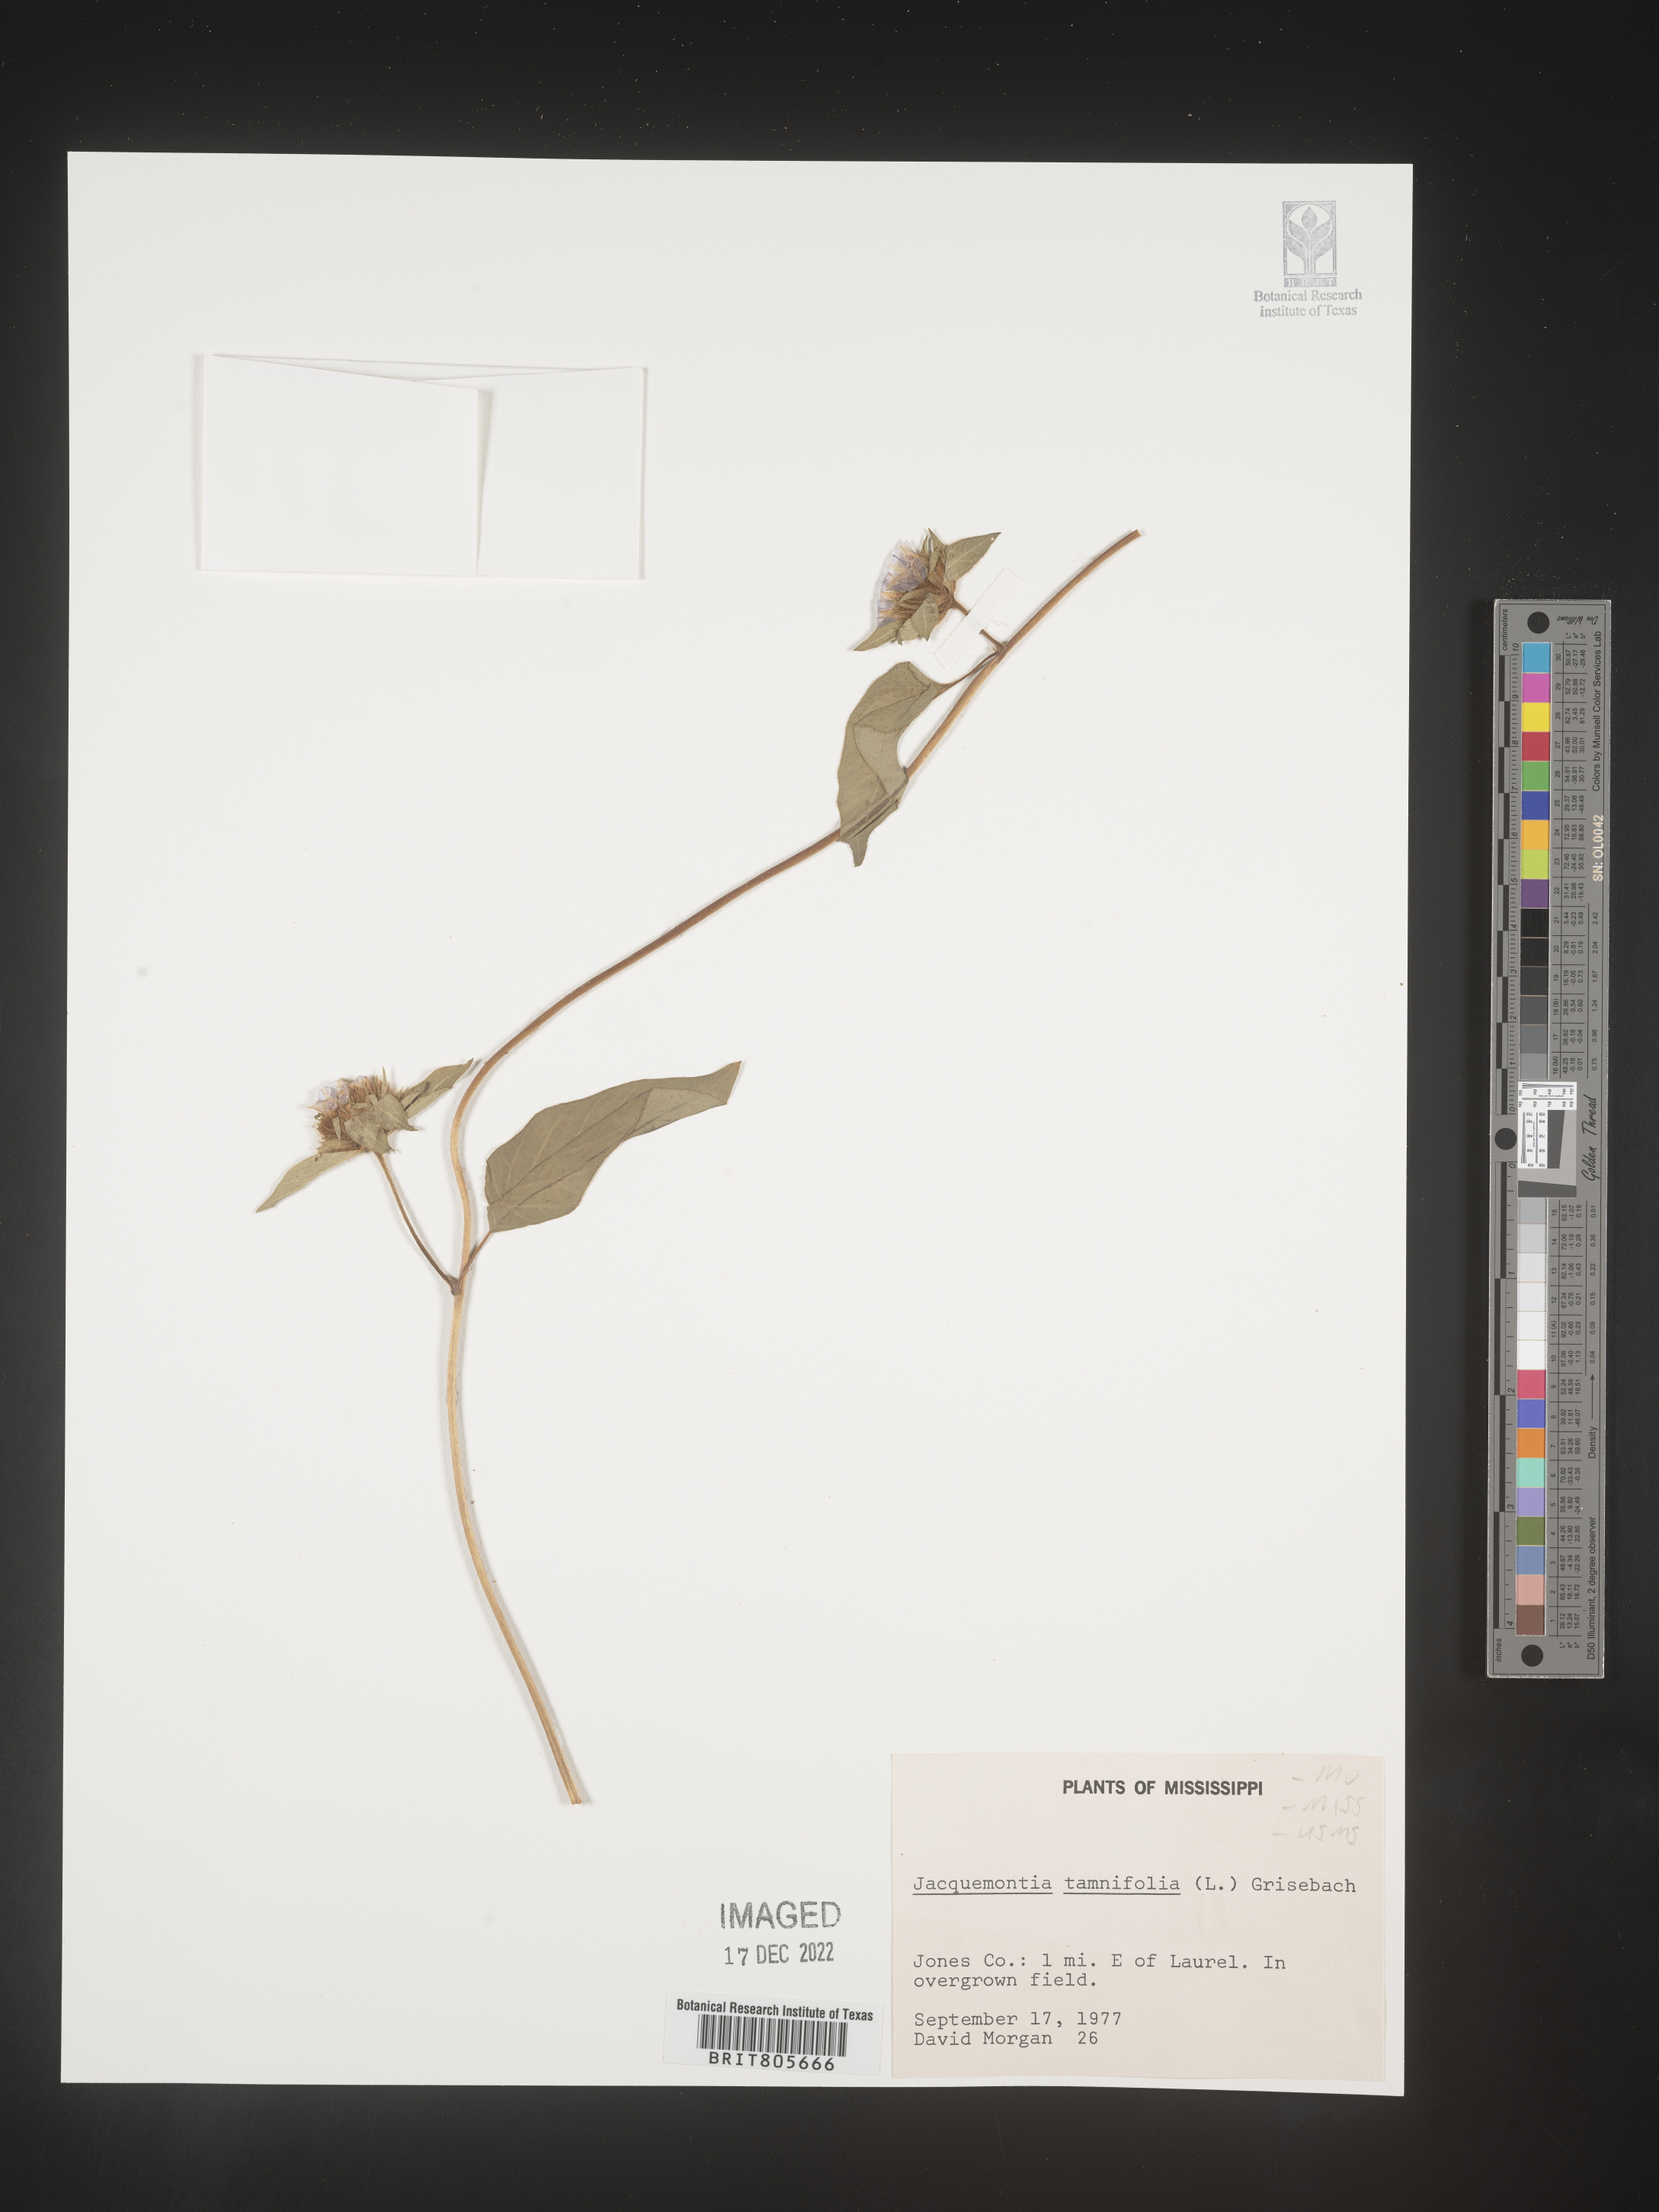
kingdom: Plantae
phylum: Tracheophyta
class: Magnoliopsida
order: Solanales
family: Convolvulaceae
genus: Jacquemontia
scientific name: Jacquemontia tamnifolia
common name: Hairy clustervine
